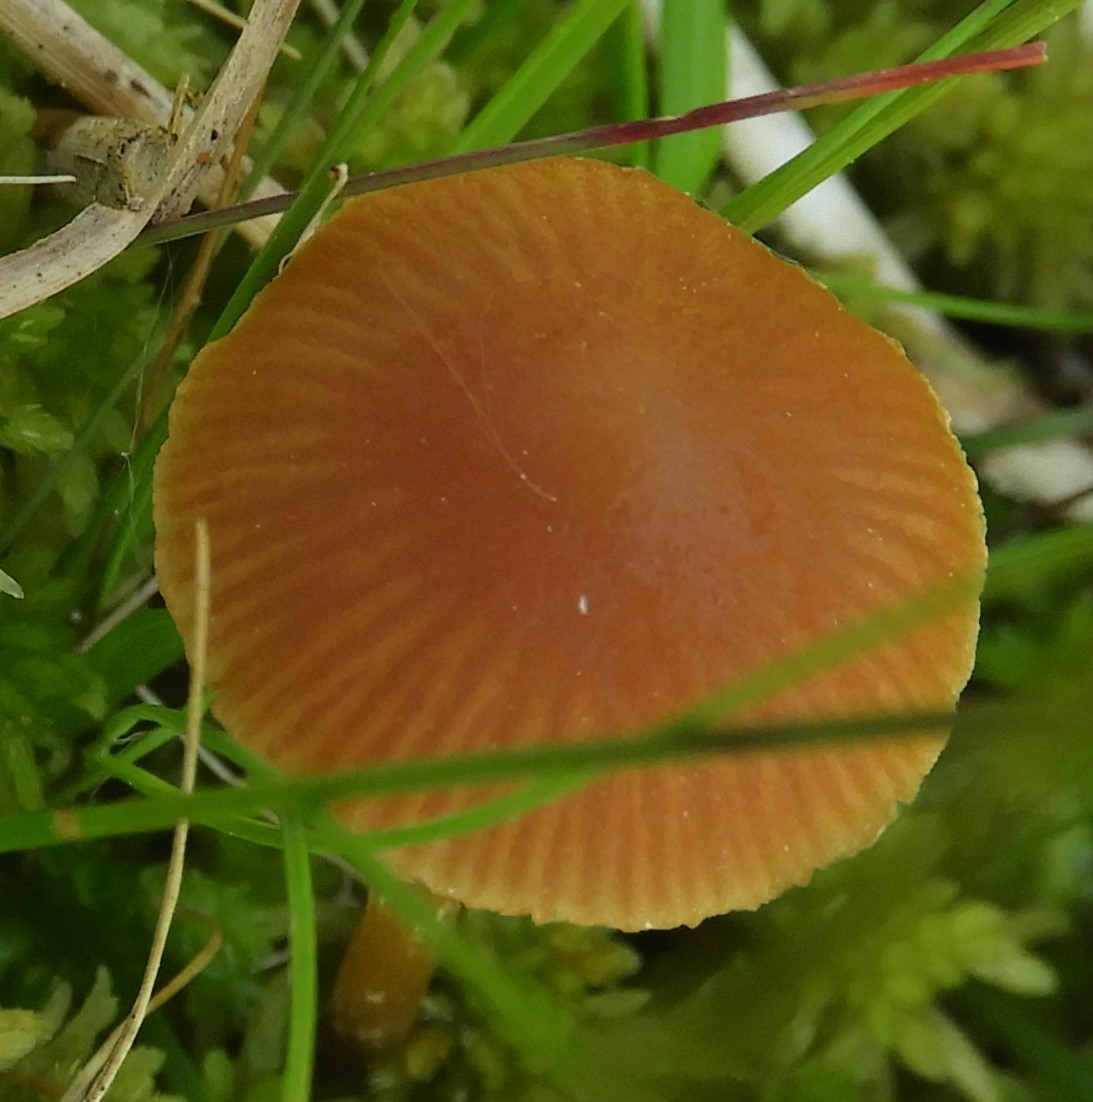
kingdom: Fungi
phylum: Basidiomycota
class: Agaricomycetes
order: Agaricales
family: Hymenogastraceae
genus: Galerina
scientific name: Galerina paludosa
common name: mose-hjelmhat
